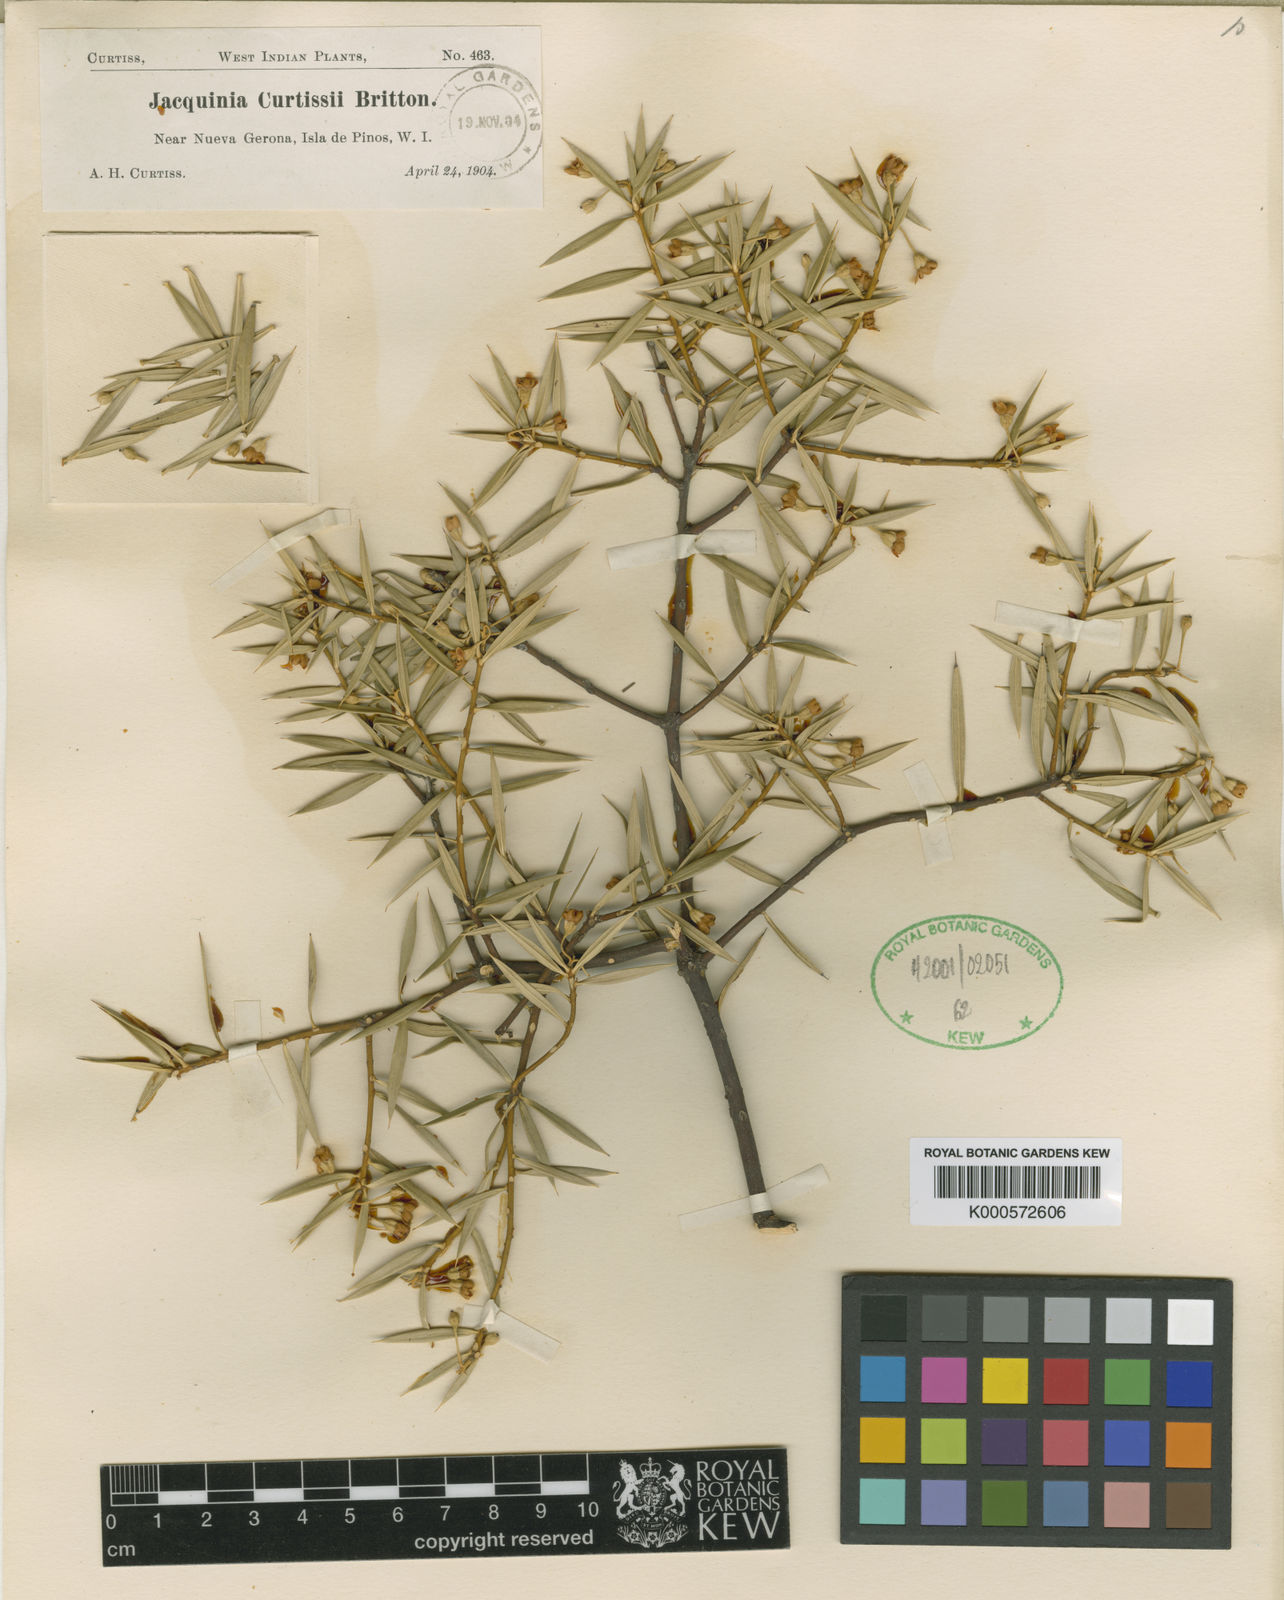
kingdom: Plantae
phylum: Tracheophyta
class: Magnoliopsida
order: Ericales
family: Primulaceae
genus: Bonellia
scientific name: Bonellia stenophylla
